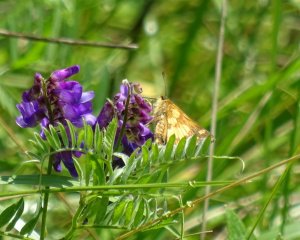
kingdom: Animalia
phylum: Arthropoda
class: Insecta
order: Lepidoptera
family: Hesperiidae
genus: Polites
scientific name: Polites coras
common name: Peck's Skipper
